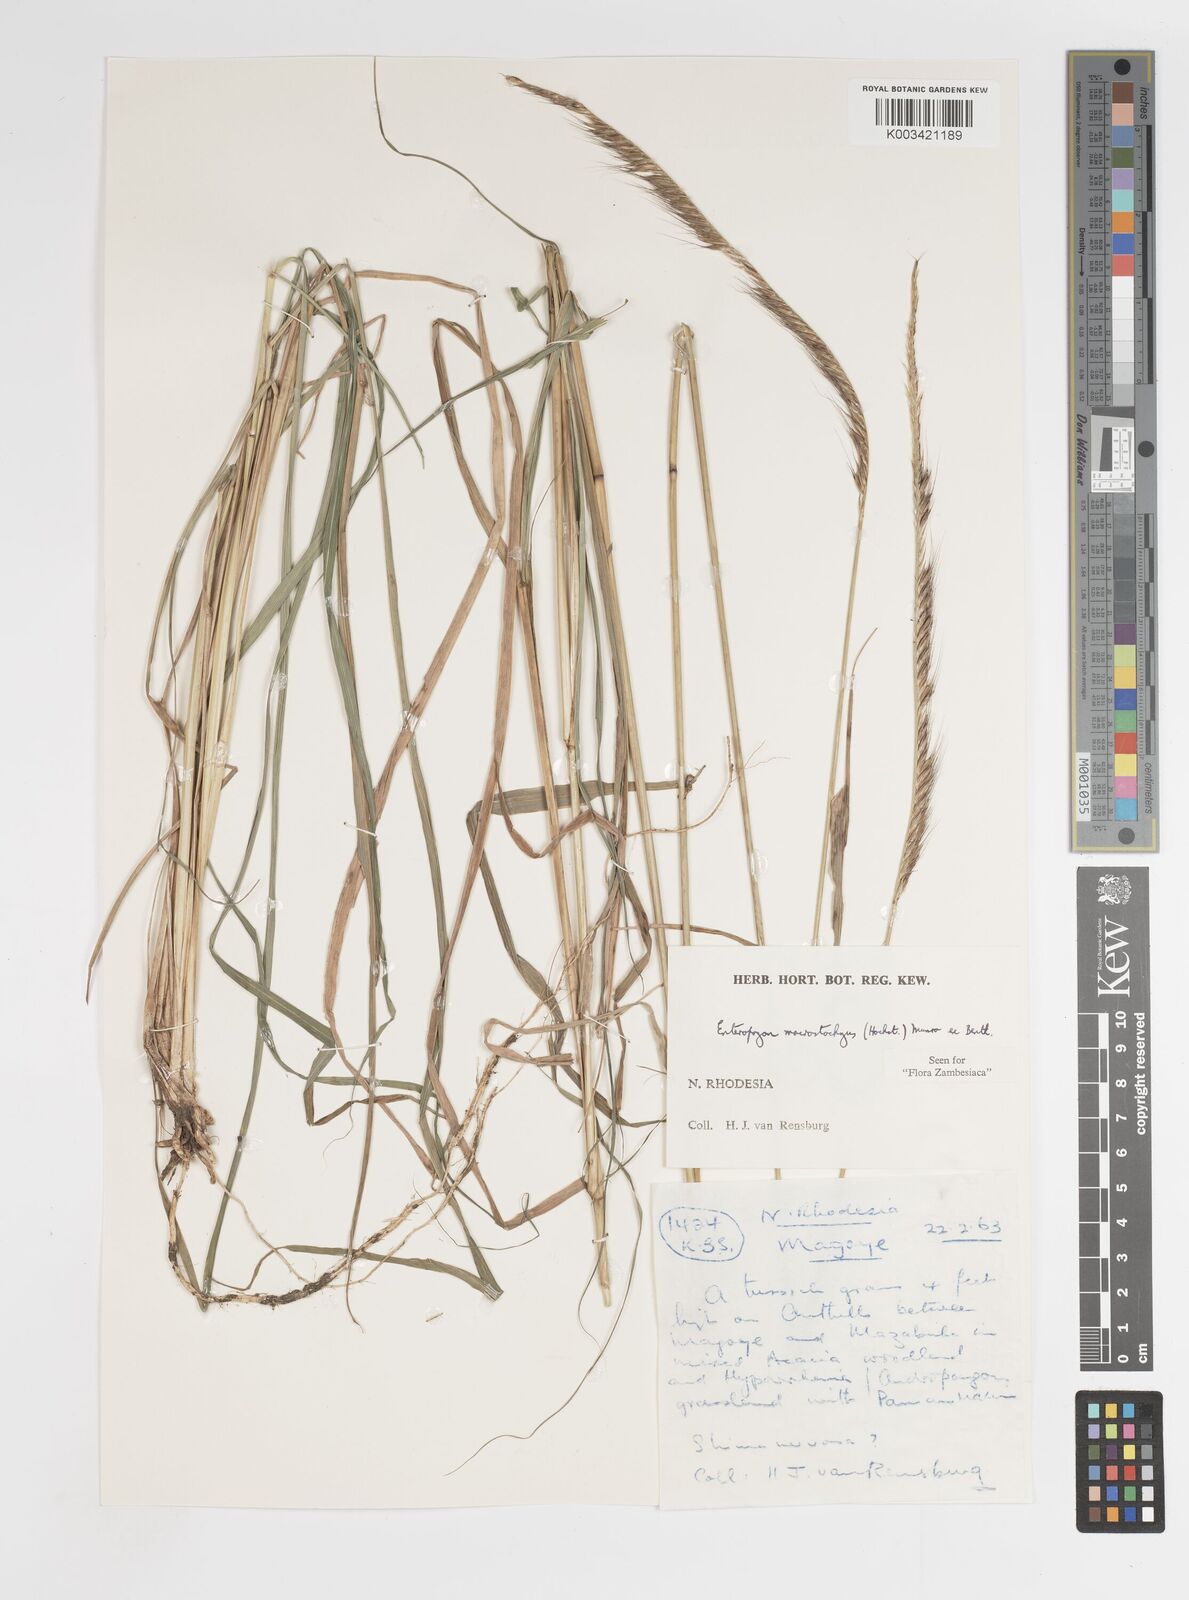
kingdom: Plantae
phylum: Tracheophyta
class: Liliopsida
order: Poales
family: Poaceae
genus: Enteropogon
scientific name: Enteropogon macrostachyus
